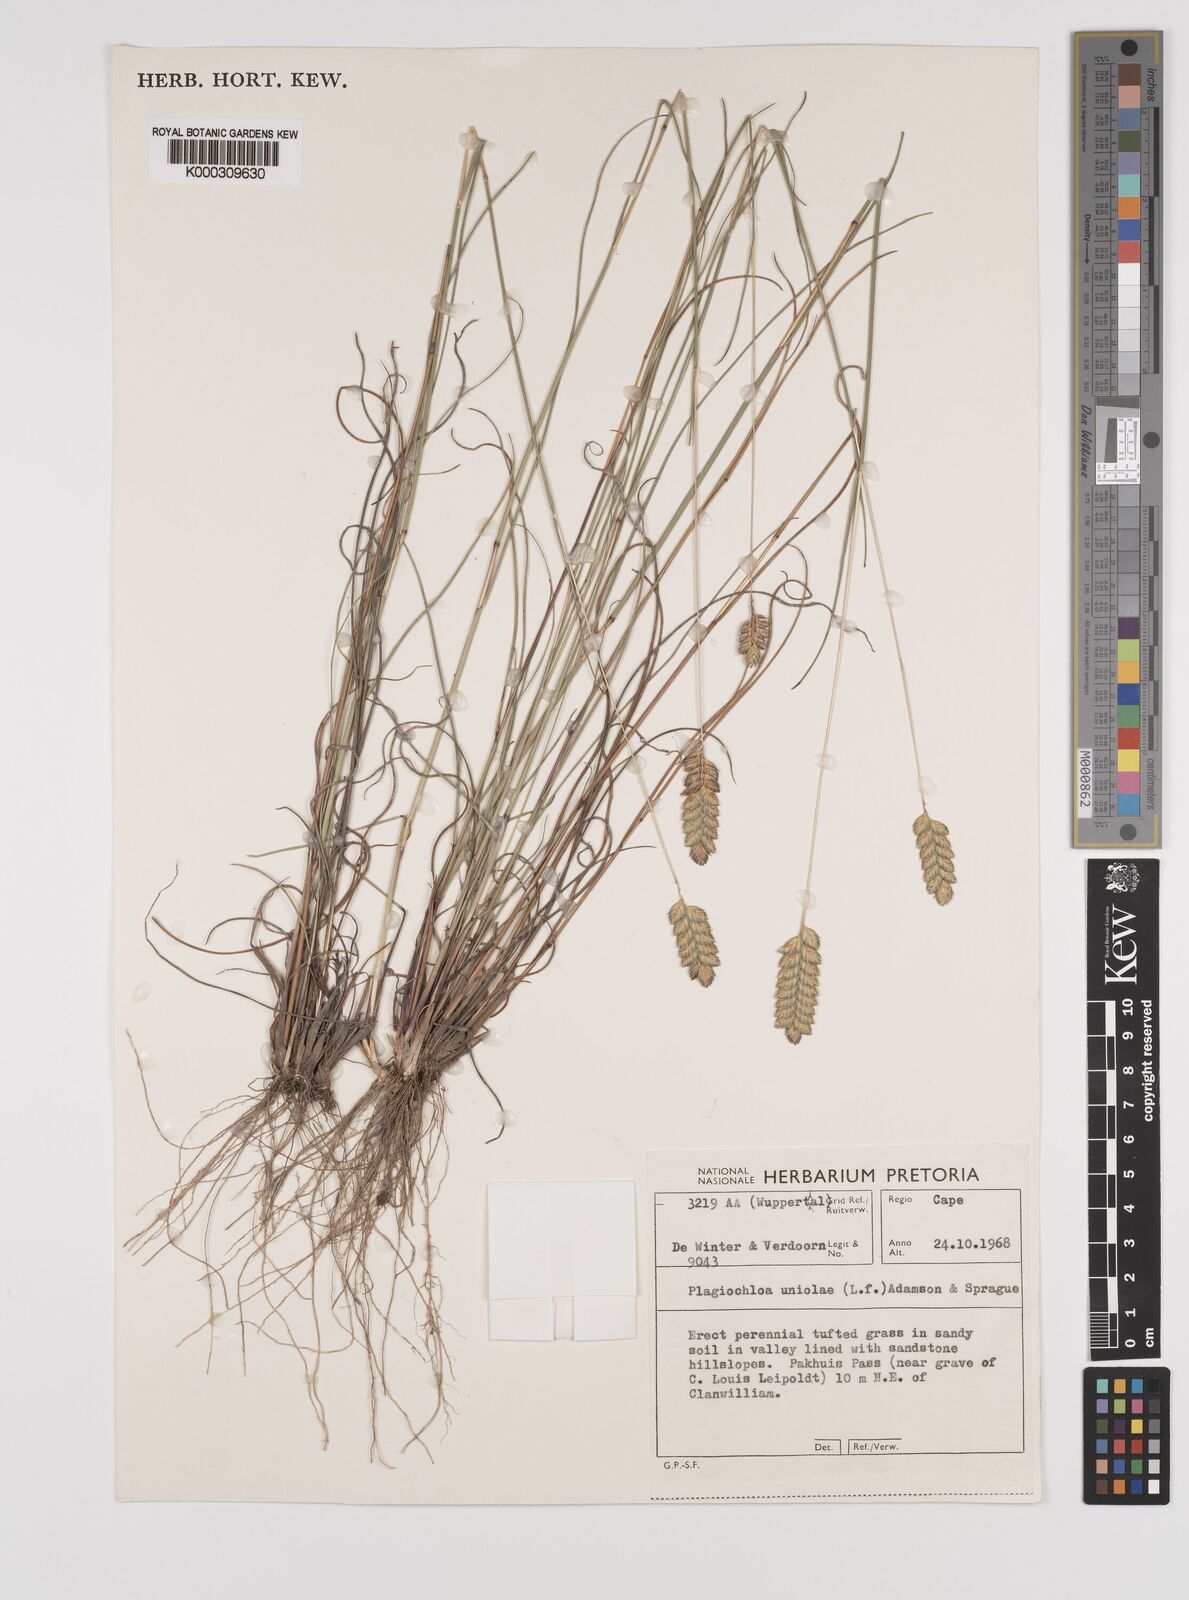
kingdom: Plantae
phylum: Tracheophyta
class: Liliopsida
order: Poales
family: Poaceae
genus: Tribolium
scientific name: Tribolium uniolae
